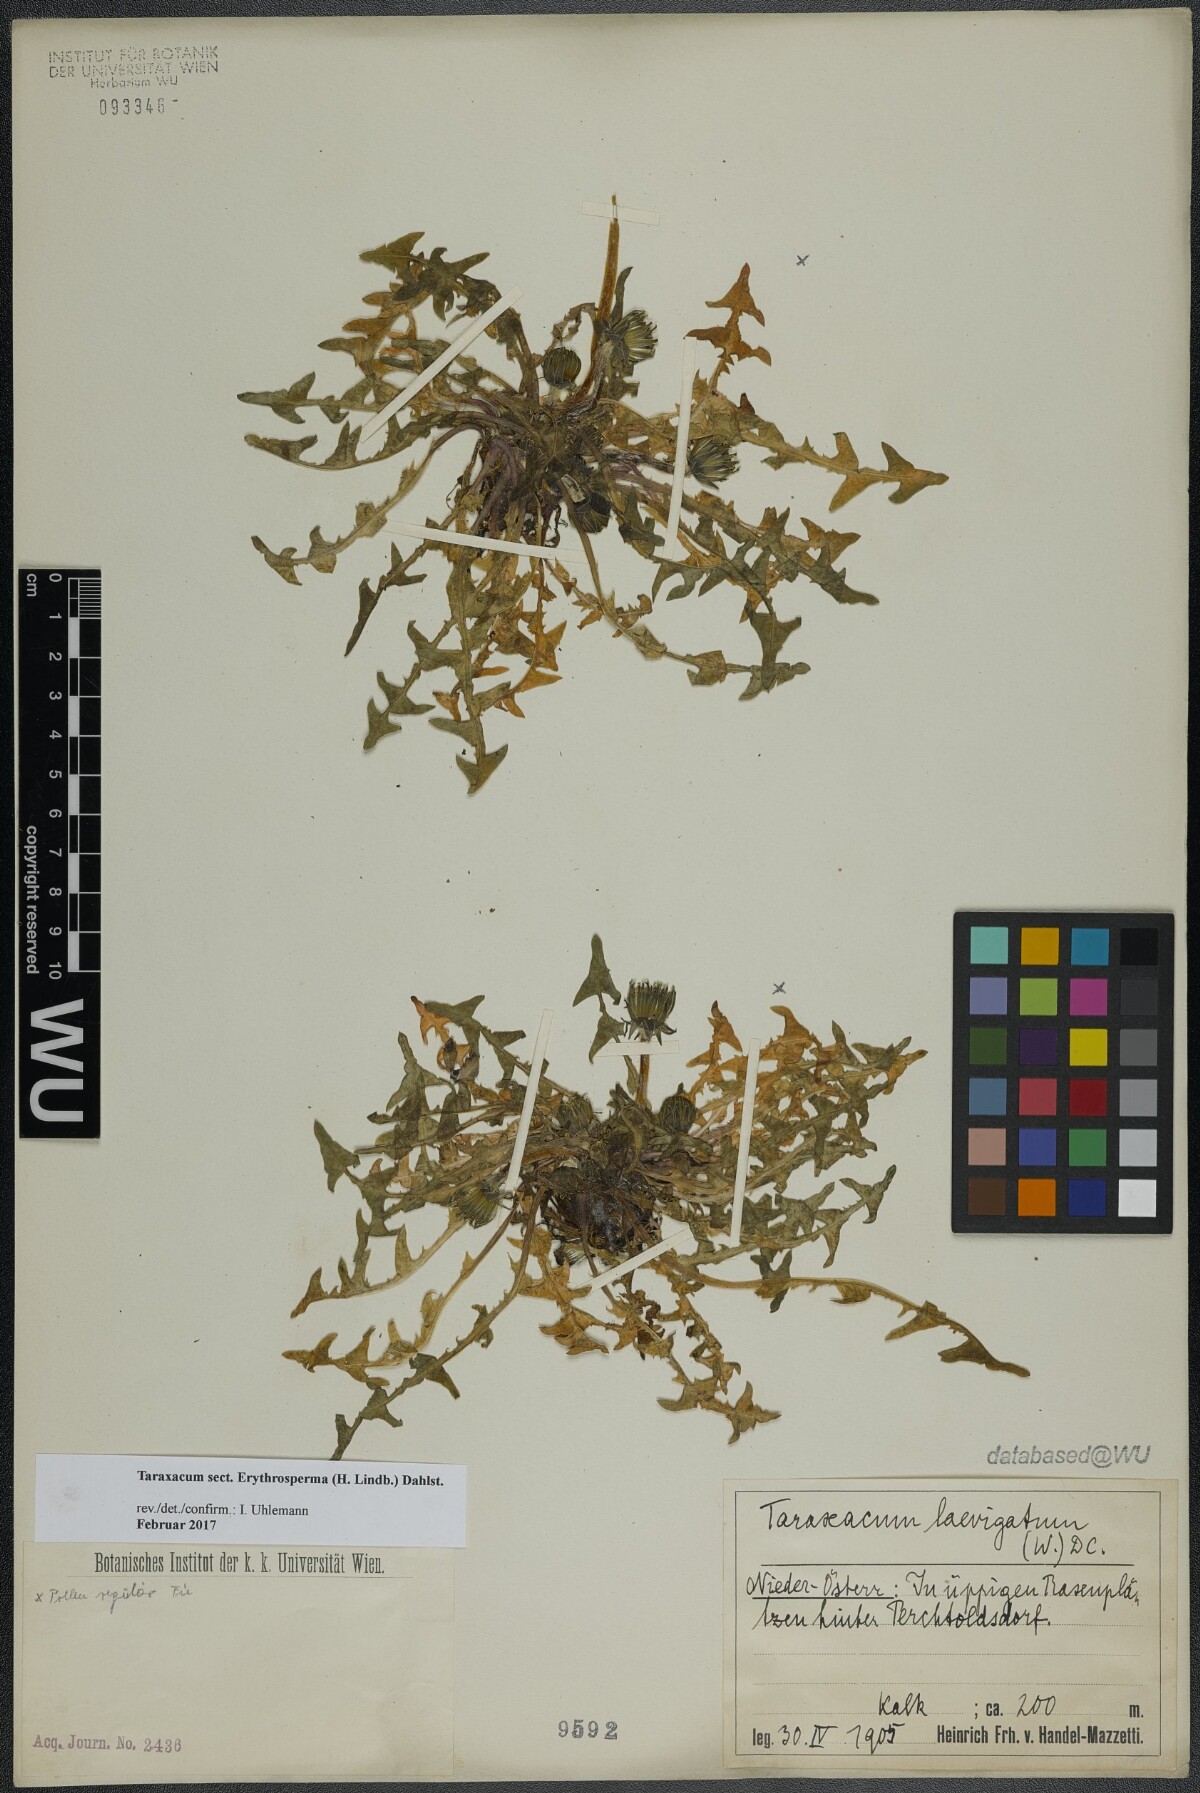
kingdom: Plantae
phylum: Tracheophyta
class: Magnoliopsida
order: Asterales
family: Asteraceae
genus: Taraxacum
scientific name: Taraxacum
